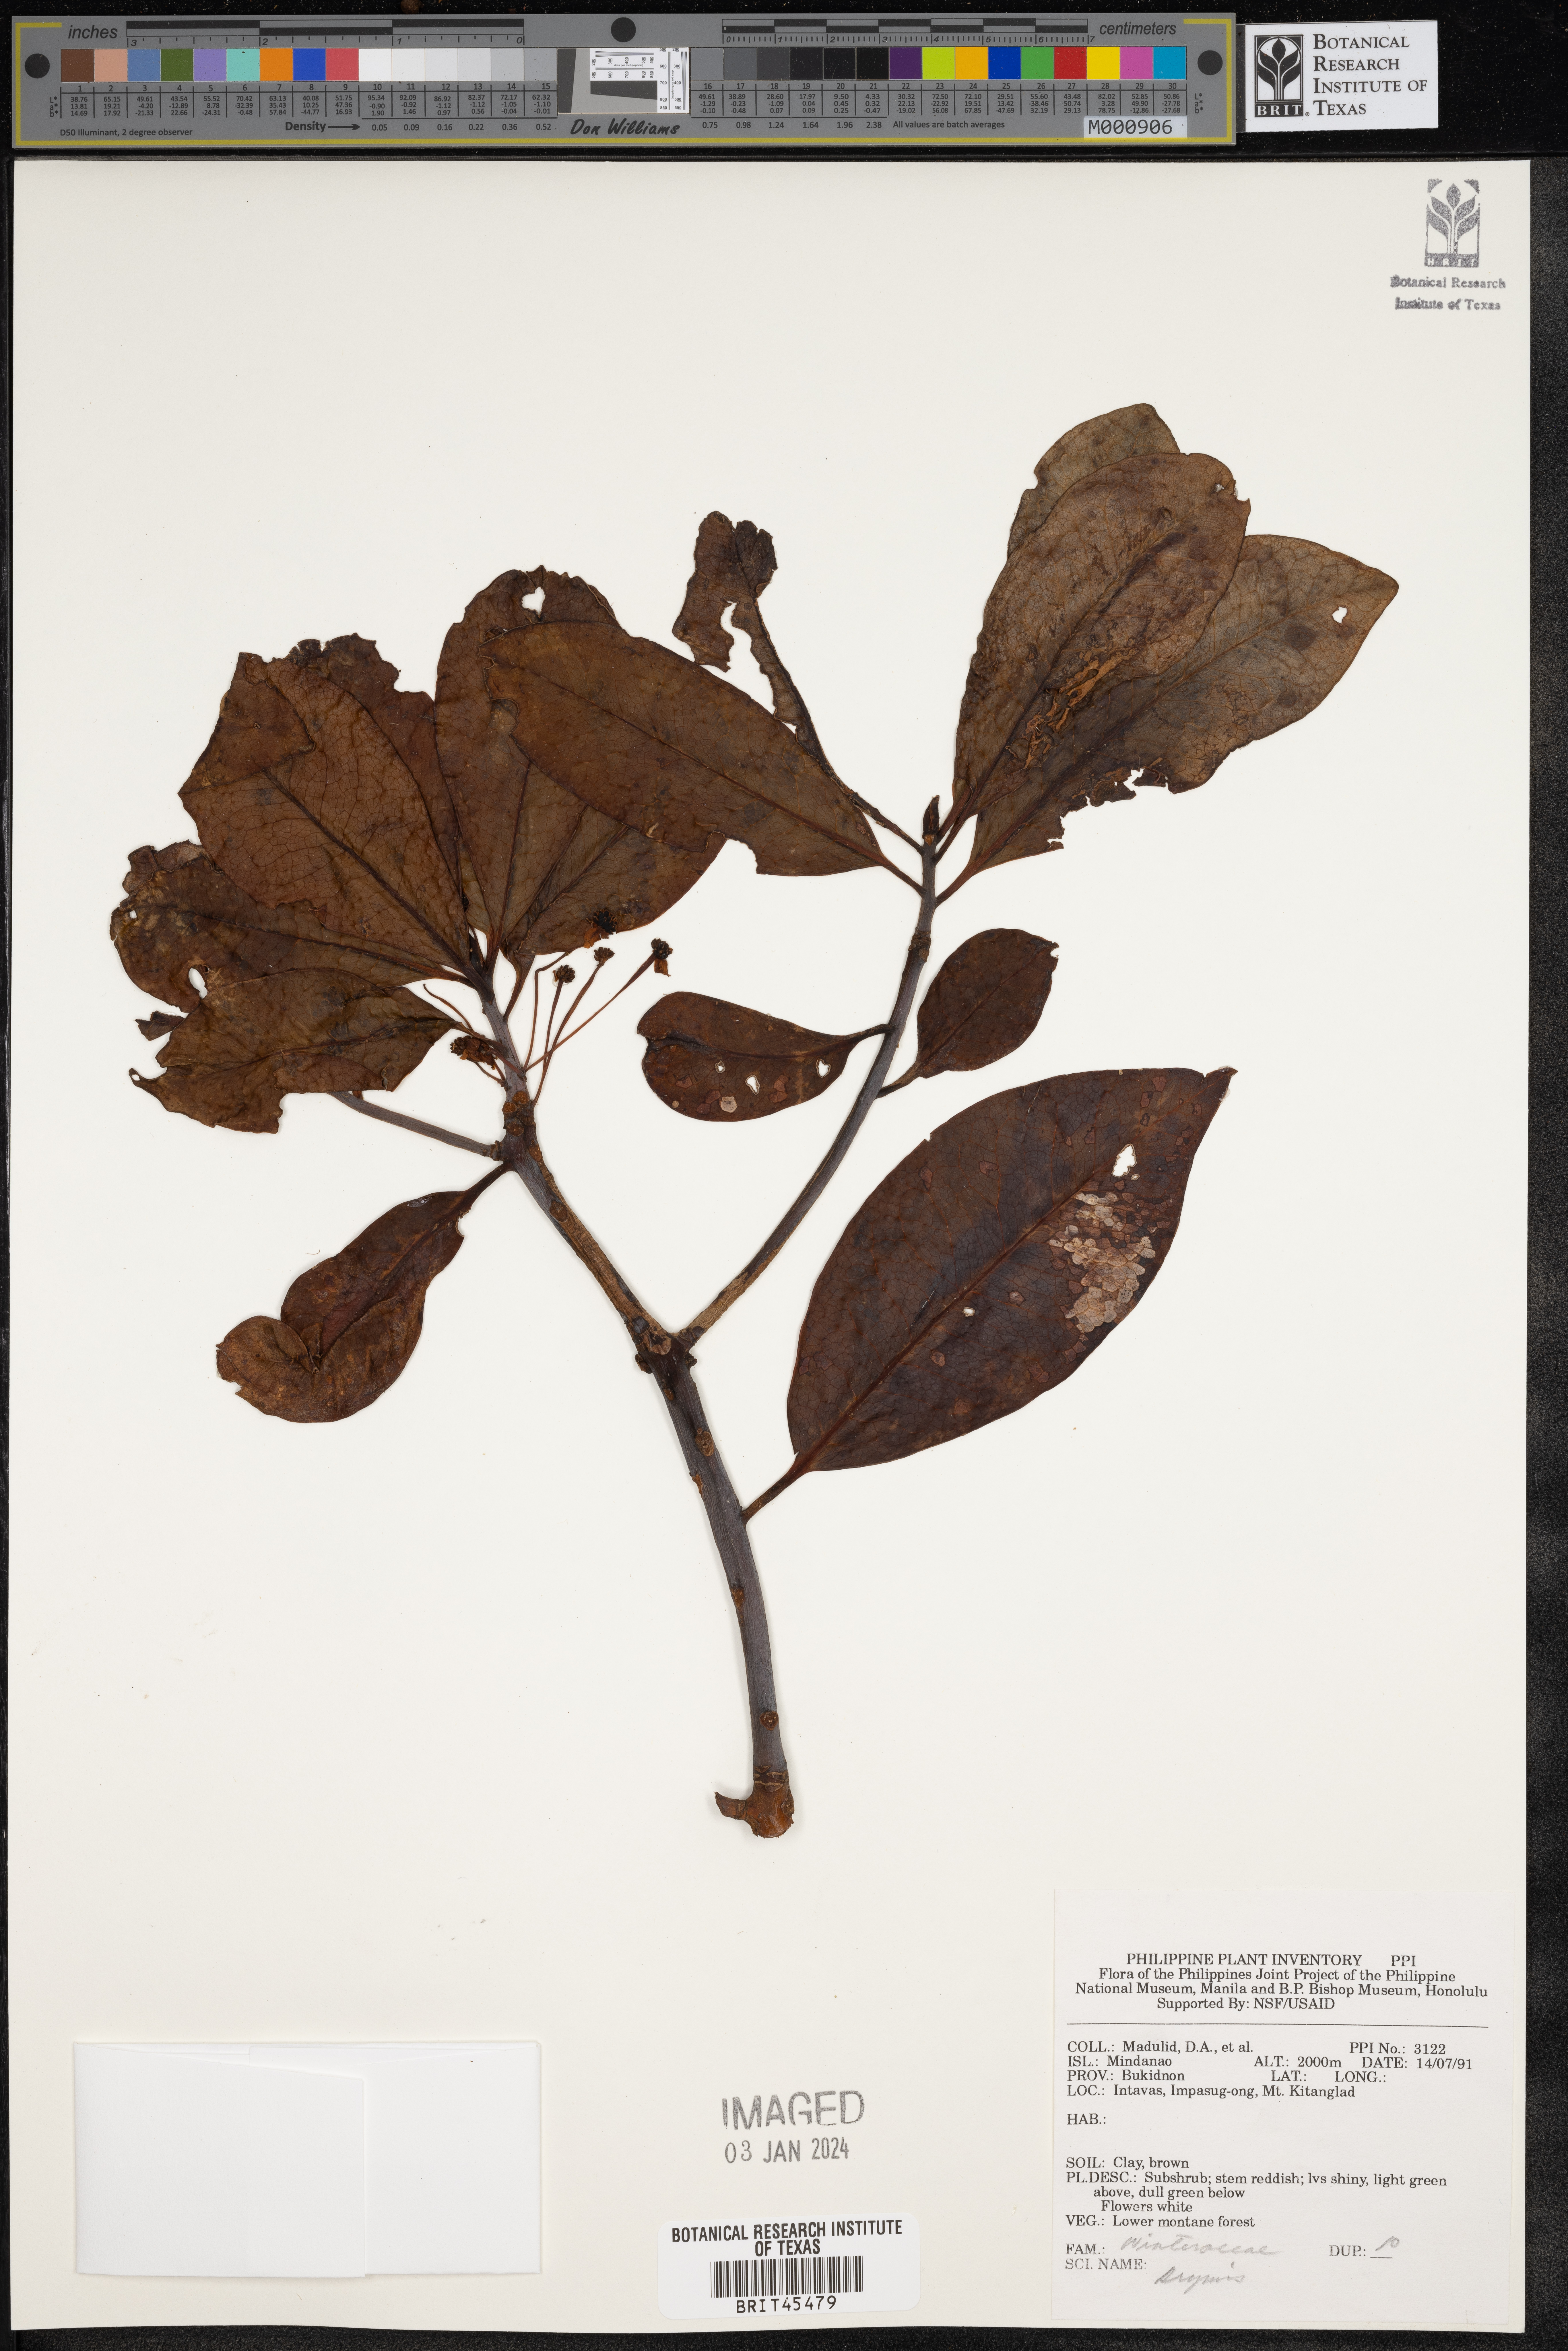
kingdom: Plantae
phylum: Tracheophyta
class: Magnoliopsida
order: Canellales
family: Winteraceae
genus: Drimys
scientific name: Drimys
